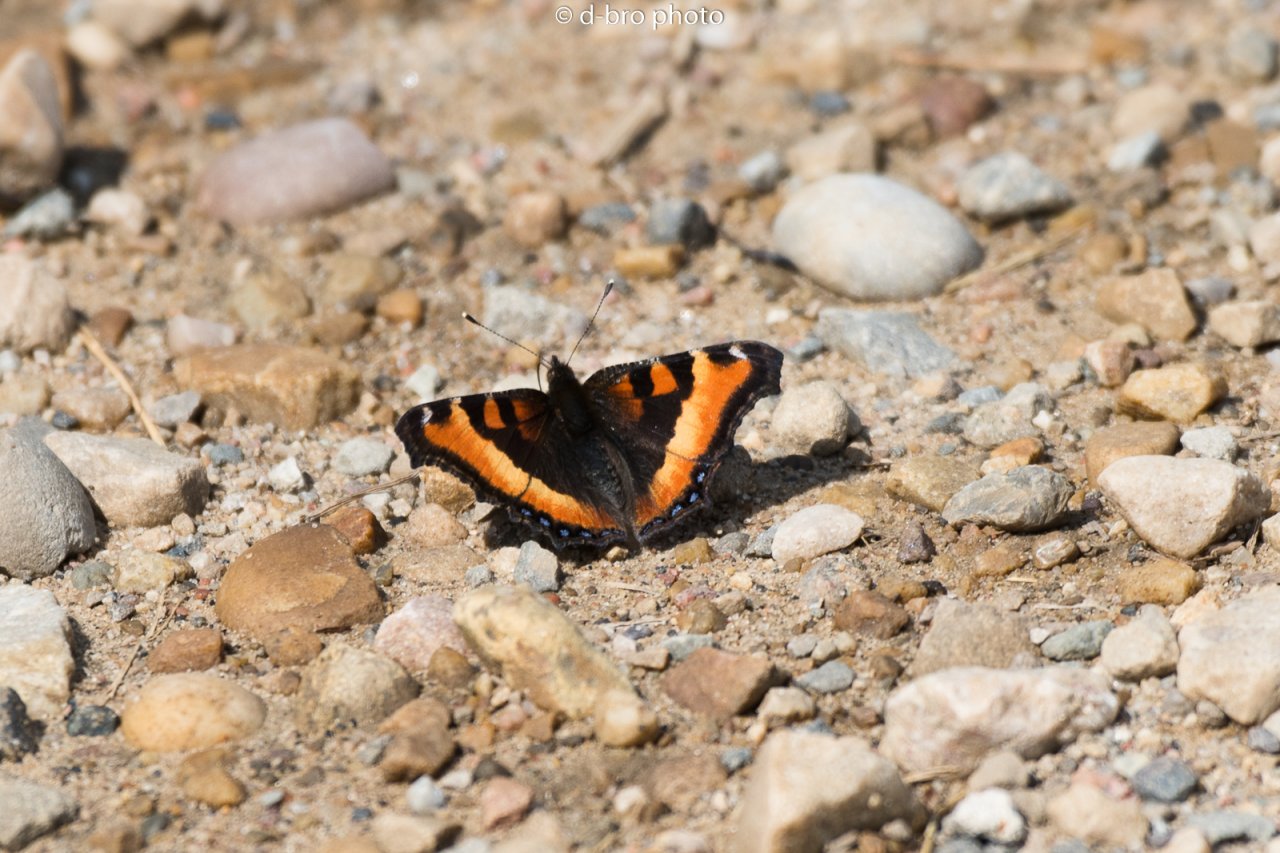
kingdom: Animalia
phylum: Arthropoda
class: Insecta
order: Lepidoptera
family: Nymphalidae
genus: Aglais
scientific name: Aglais milberti
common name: Milbert's Tortoiseshell
